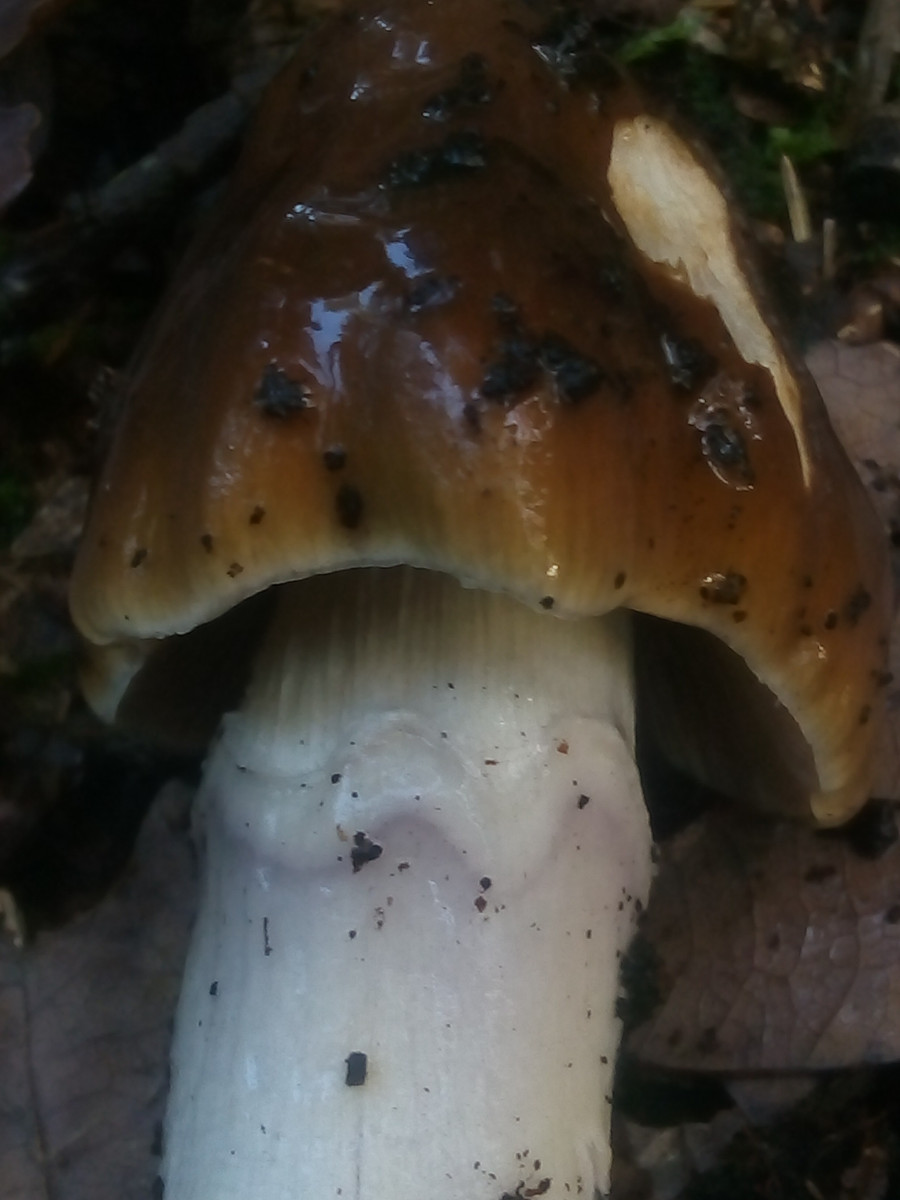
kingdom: Fungi
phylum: Basidiomycota
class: Agaricomycetes
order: Agaricales
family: Cortinariaceae
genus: Cortinarius
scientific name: Cortinarius elatior
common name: høj slørhat
